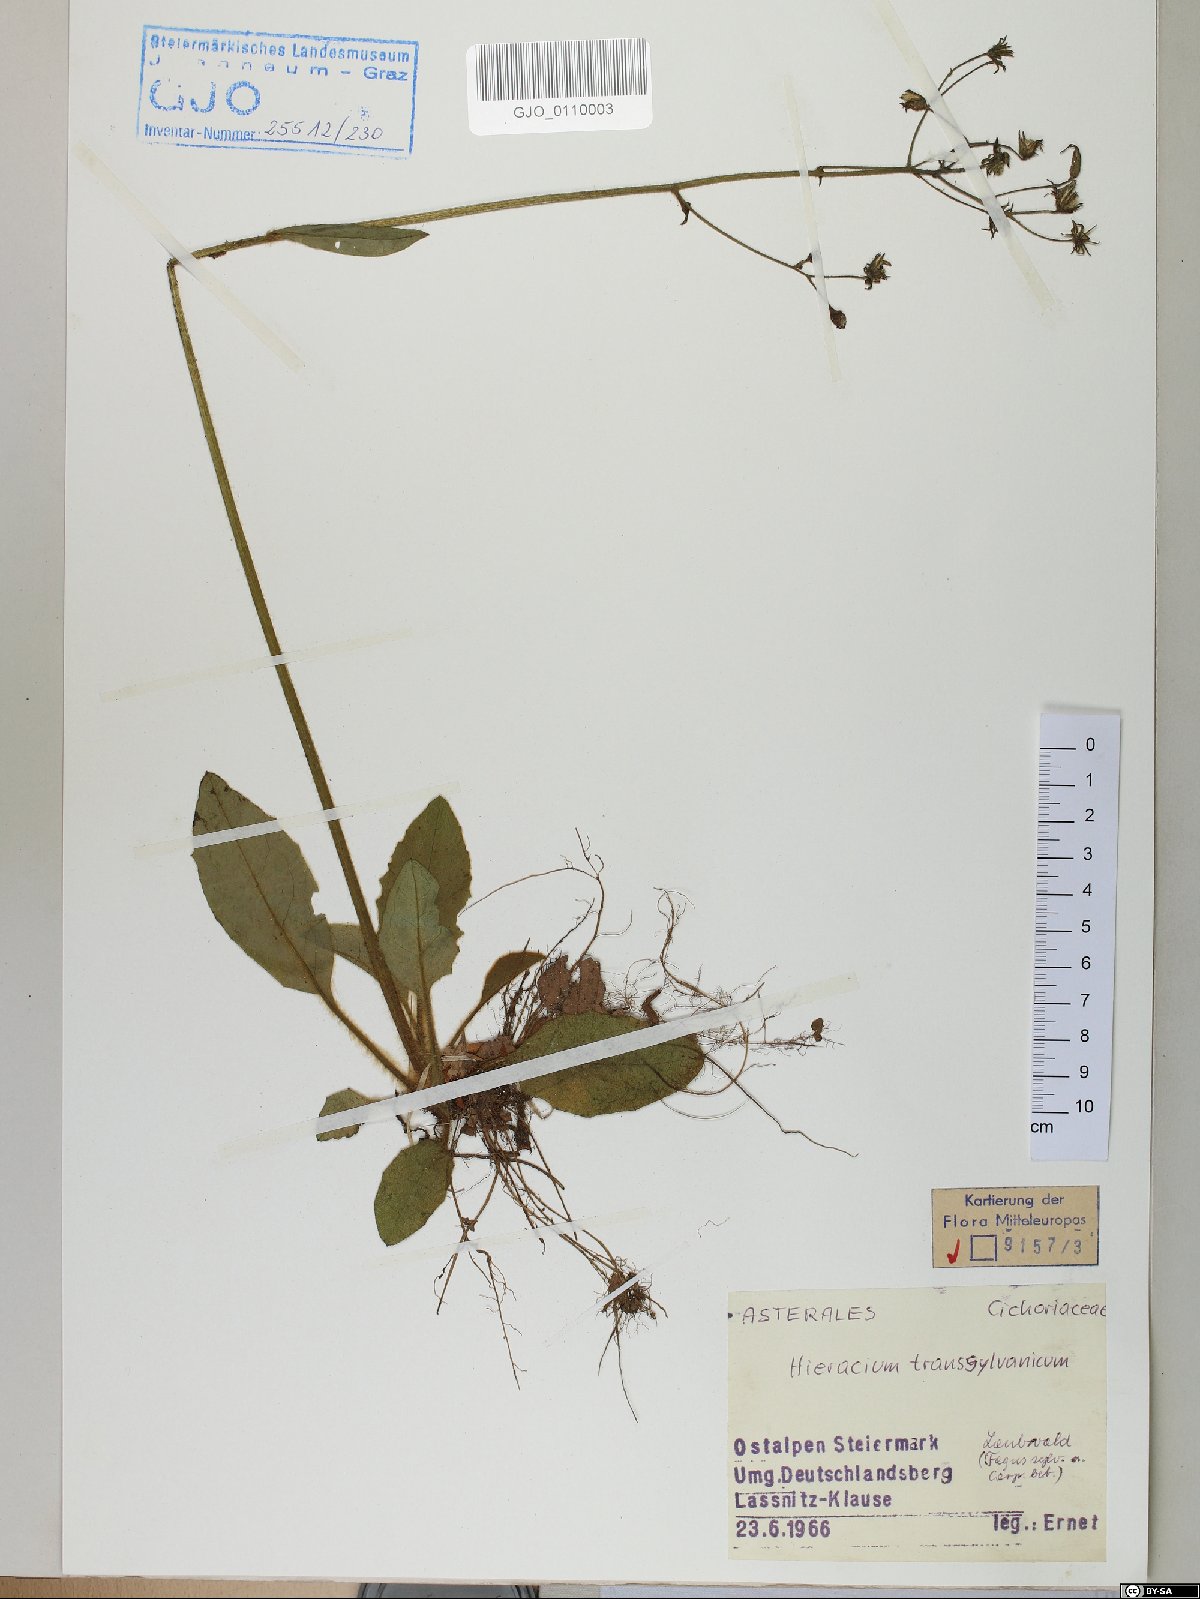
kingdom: Plantae
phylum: Tracheophyta
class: Magnoliopsida
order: Asterales
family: Asteraceae
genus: Hieracium
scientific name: Hieracium transylvanicum
